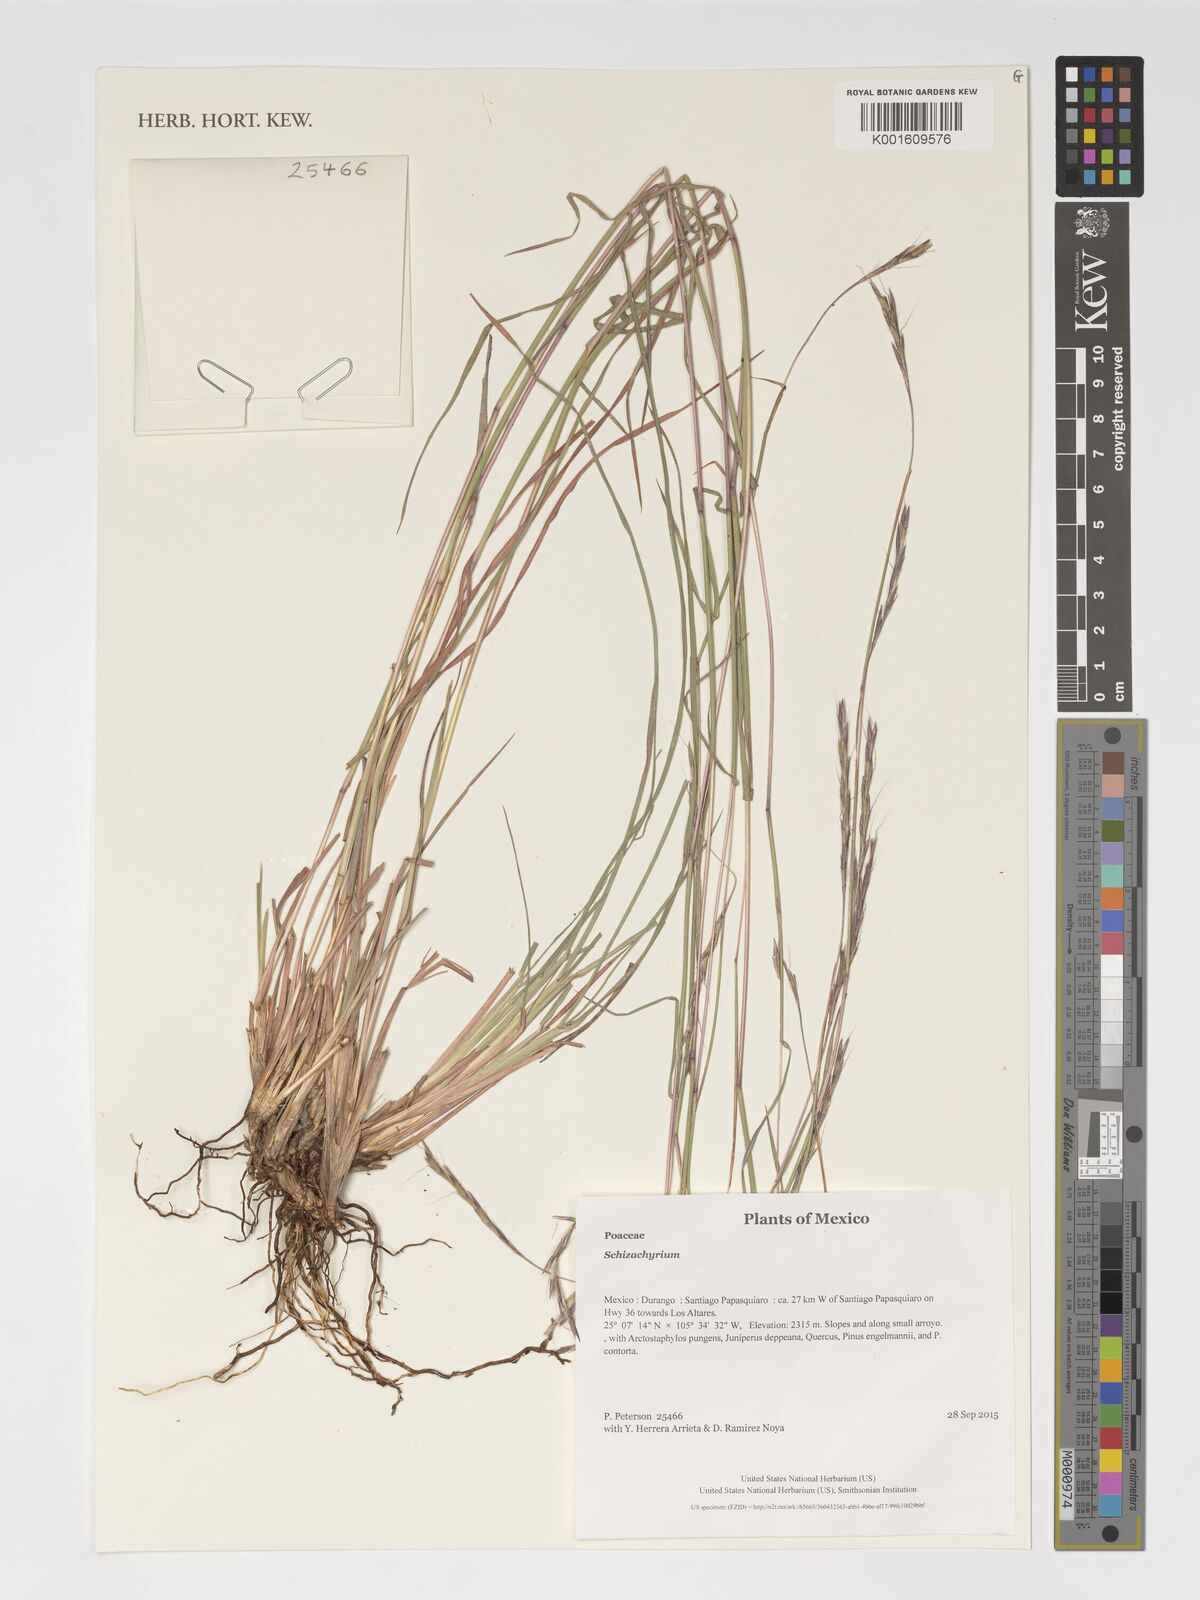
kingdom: Plantae
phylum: Tracheophyta
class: Liliopsida
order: Poales
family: Poaceae
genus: Schizachyrium
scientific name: Schizachyrium
